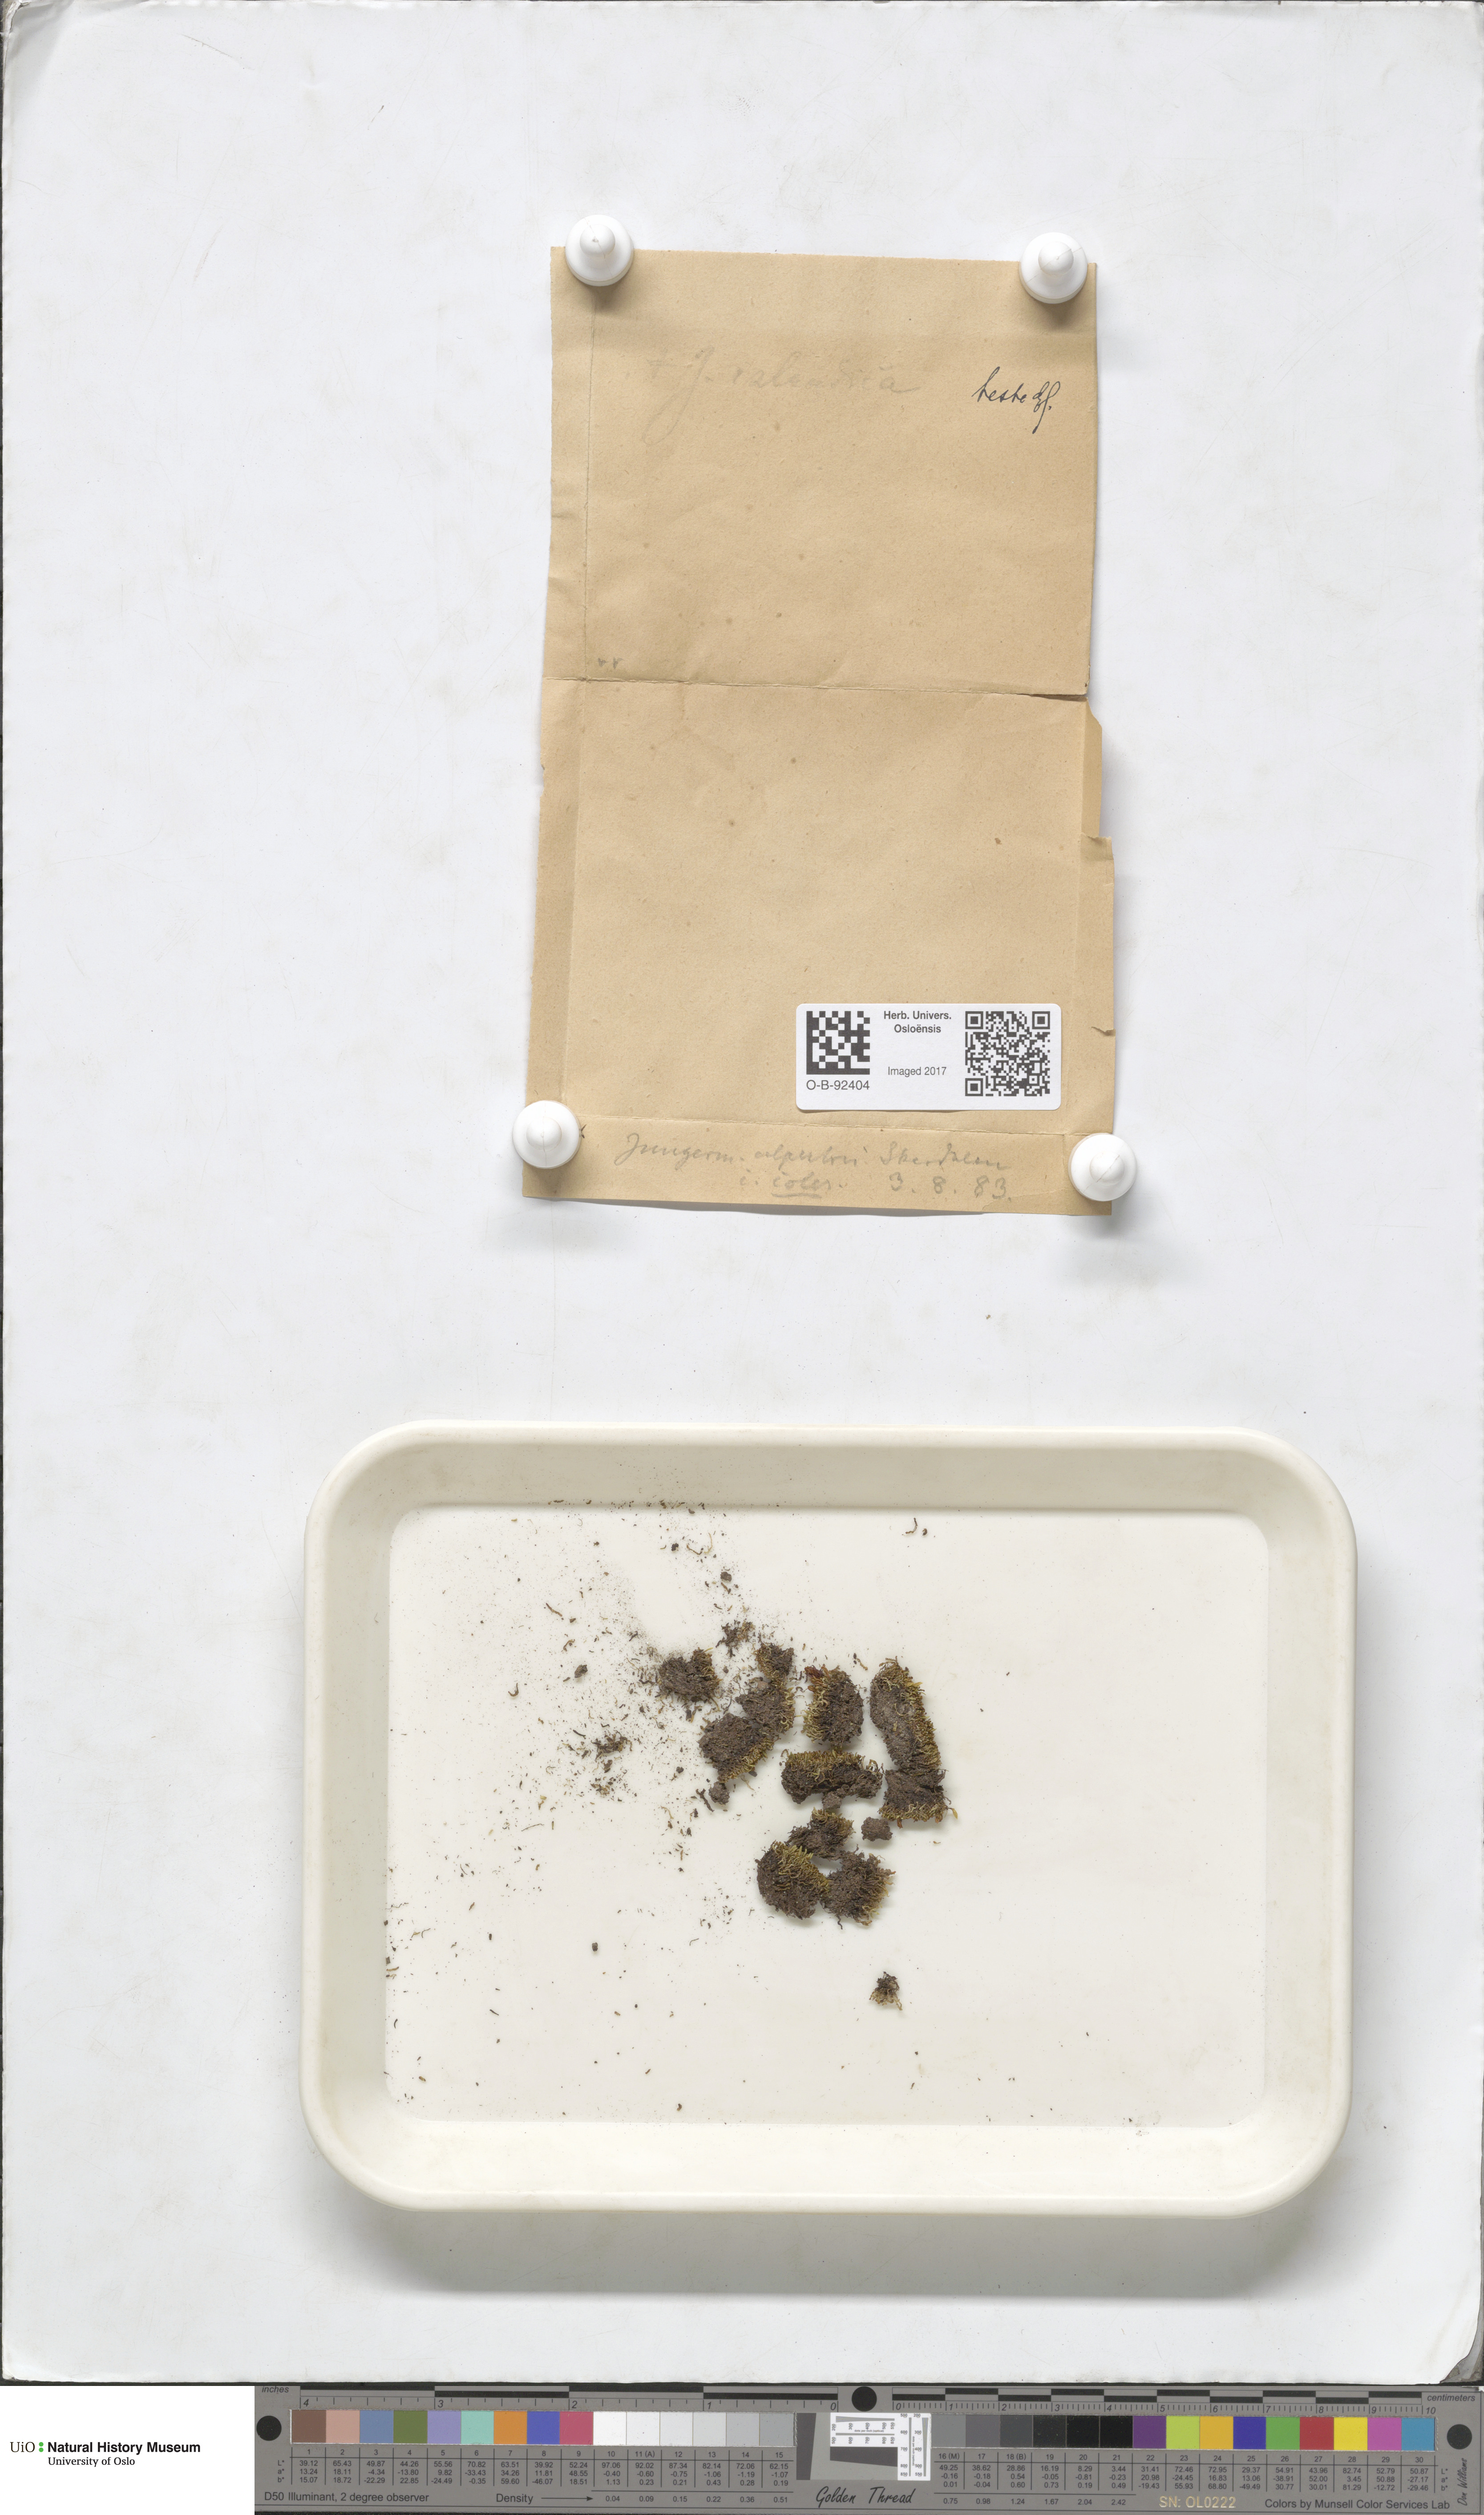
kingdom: Plantae
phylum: Marchantiophyta
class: Jungermanniopsida
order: Jungermanniales
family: Anastrophyllaceae
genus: Barbilophozia
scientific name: Barbilophozia sudetica
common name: Hill notchwort
